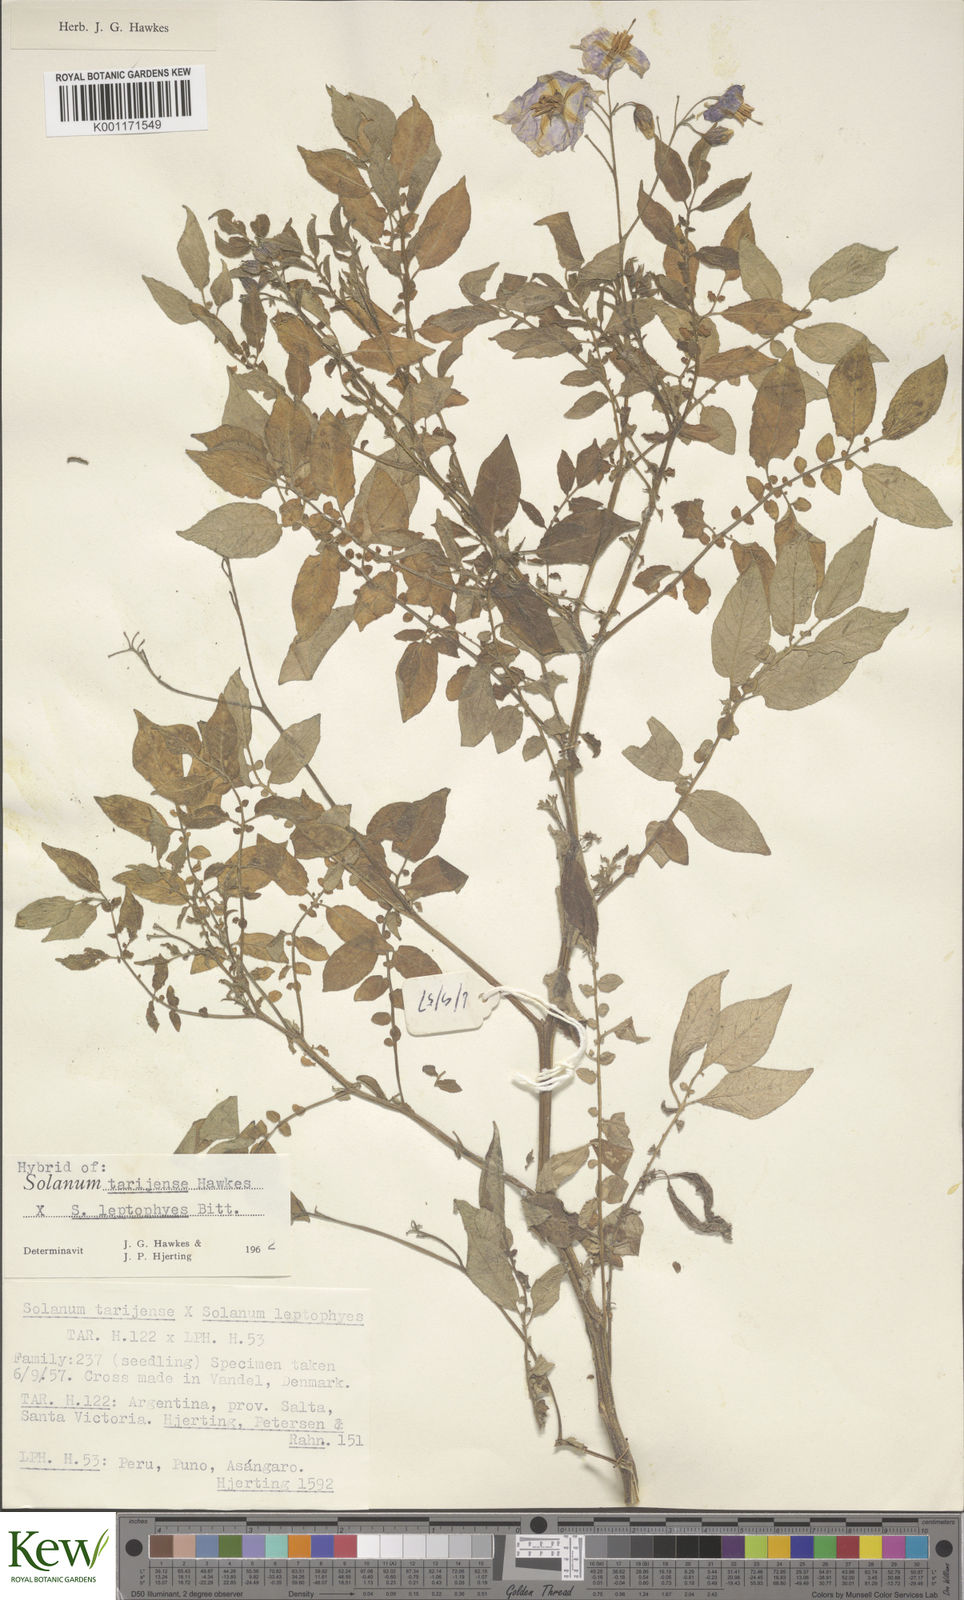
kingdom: Plantae
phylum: Tracheophyta
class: Magnoliopsida
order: Solanales
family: Solanaceae
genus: Solanum
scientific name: Solanum tarijense
